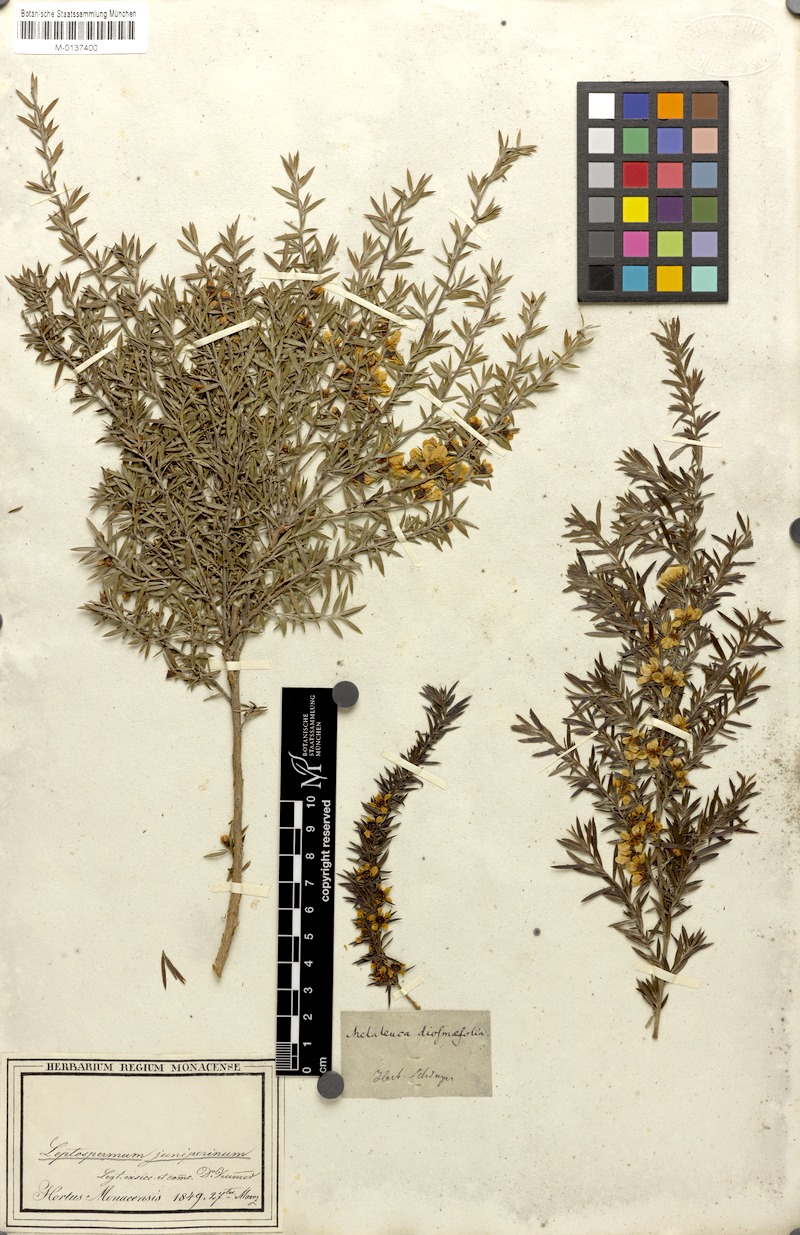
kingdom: Plantae
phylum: Tracheophyta
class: Magnoliopsida
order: Myrtales
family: Myrtaceae
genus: Leptospermum
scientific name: Leptospermum juniperinum
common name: Prickly teatree
